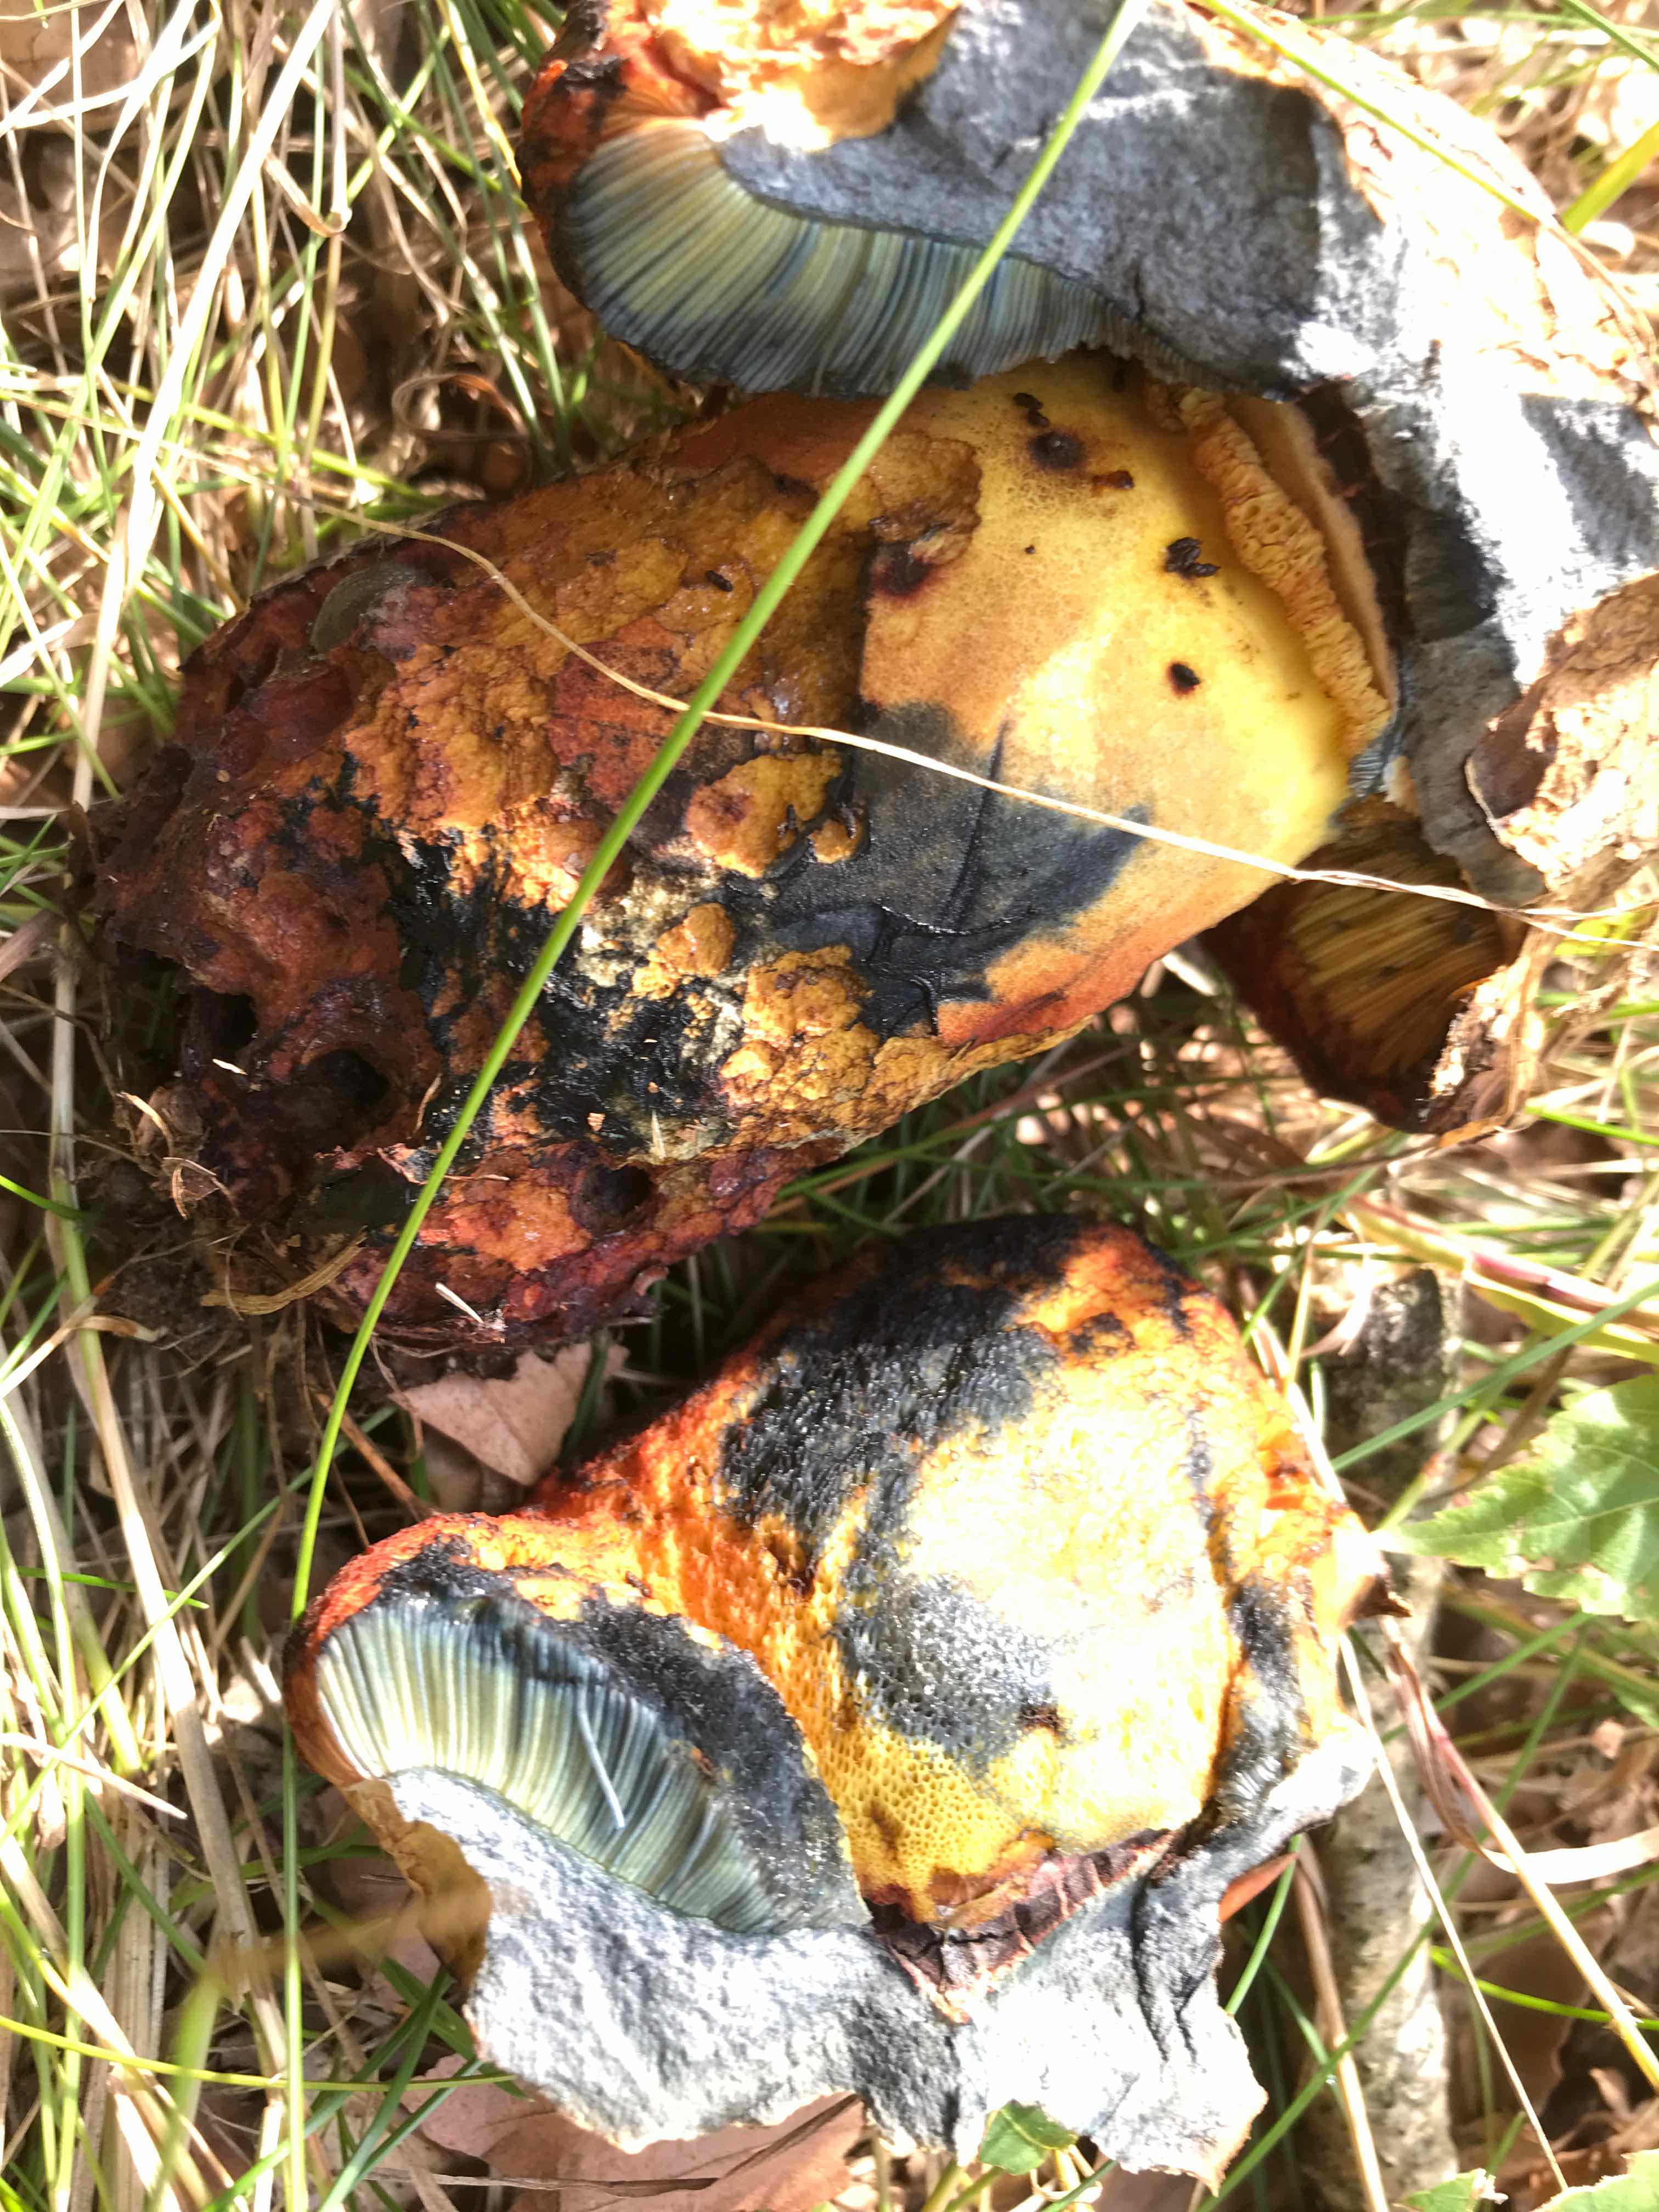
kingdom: Fungi
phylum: Basidiomycota
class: Agaricomycetes
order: Boletales
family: Boletaceae
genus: Neoboletus
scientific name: Neoboletus xanthopus
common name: finprikket indigorørhat
